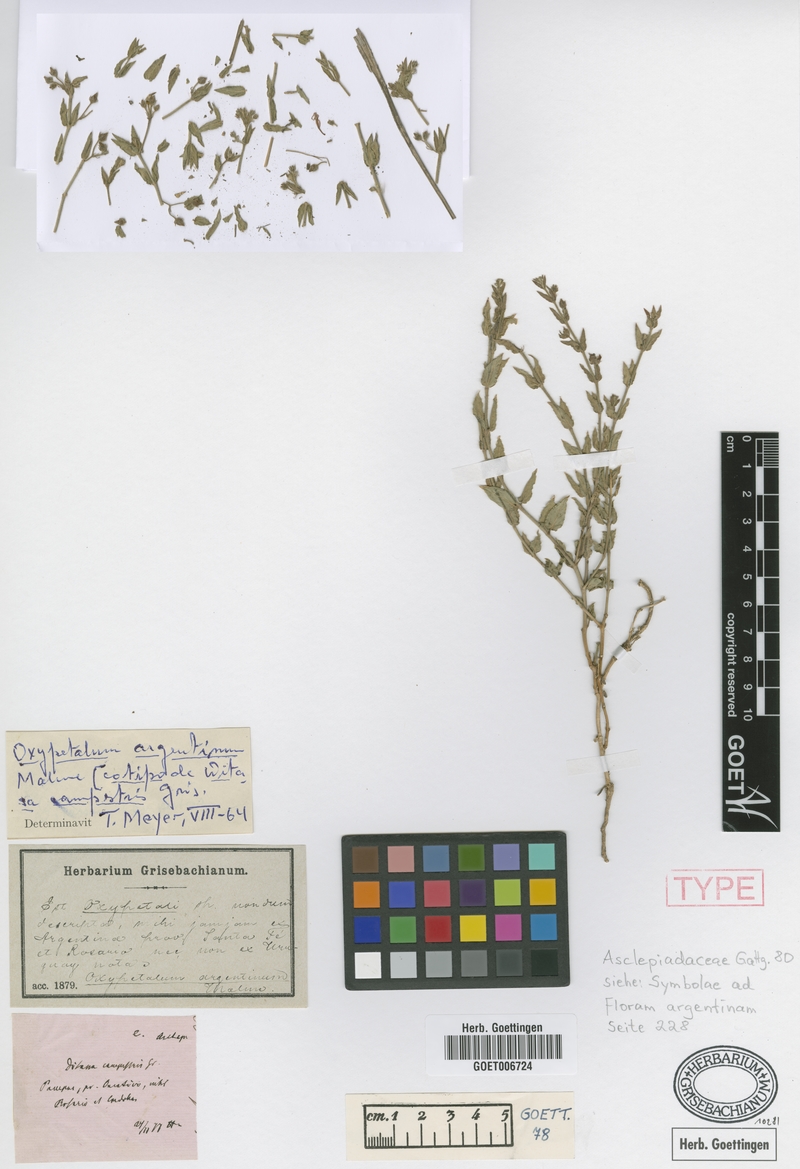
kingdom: Plantae
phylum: Tracheophyta
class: Magnoliopsida
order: Gentianales
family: Apocynaceae
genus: Oxypetalum
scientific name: Oxypetalum argentinum
